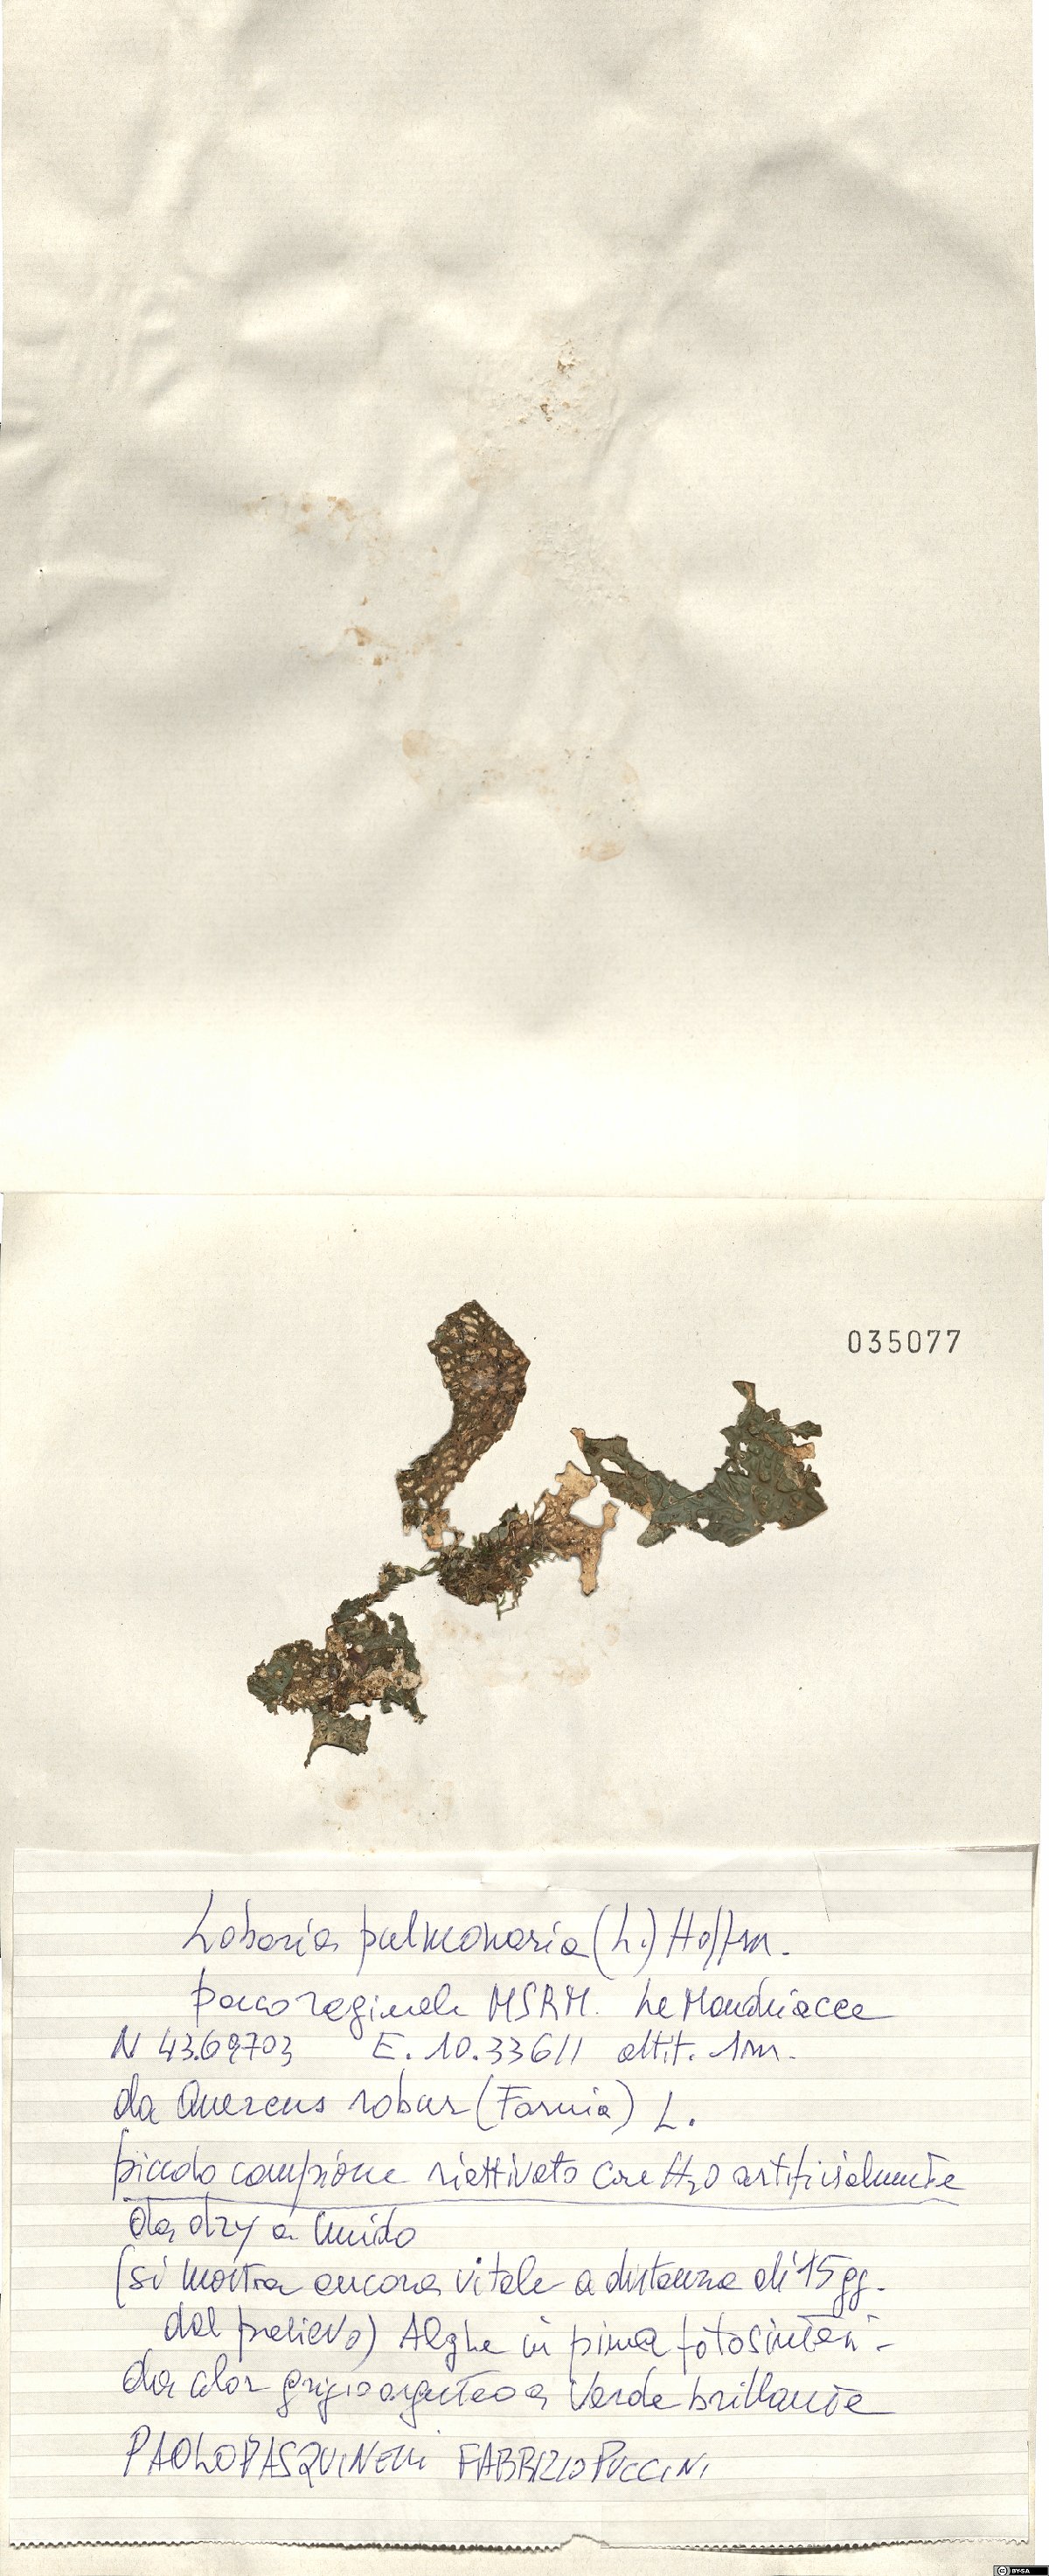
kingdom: Fungi
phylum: Ascomycota
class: Lecanoromycetes
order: Peltigerales
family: Lobariaceae
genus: Lobaria
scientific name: Lobaria pulmonaria
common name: Lungwort
